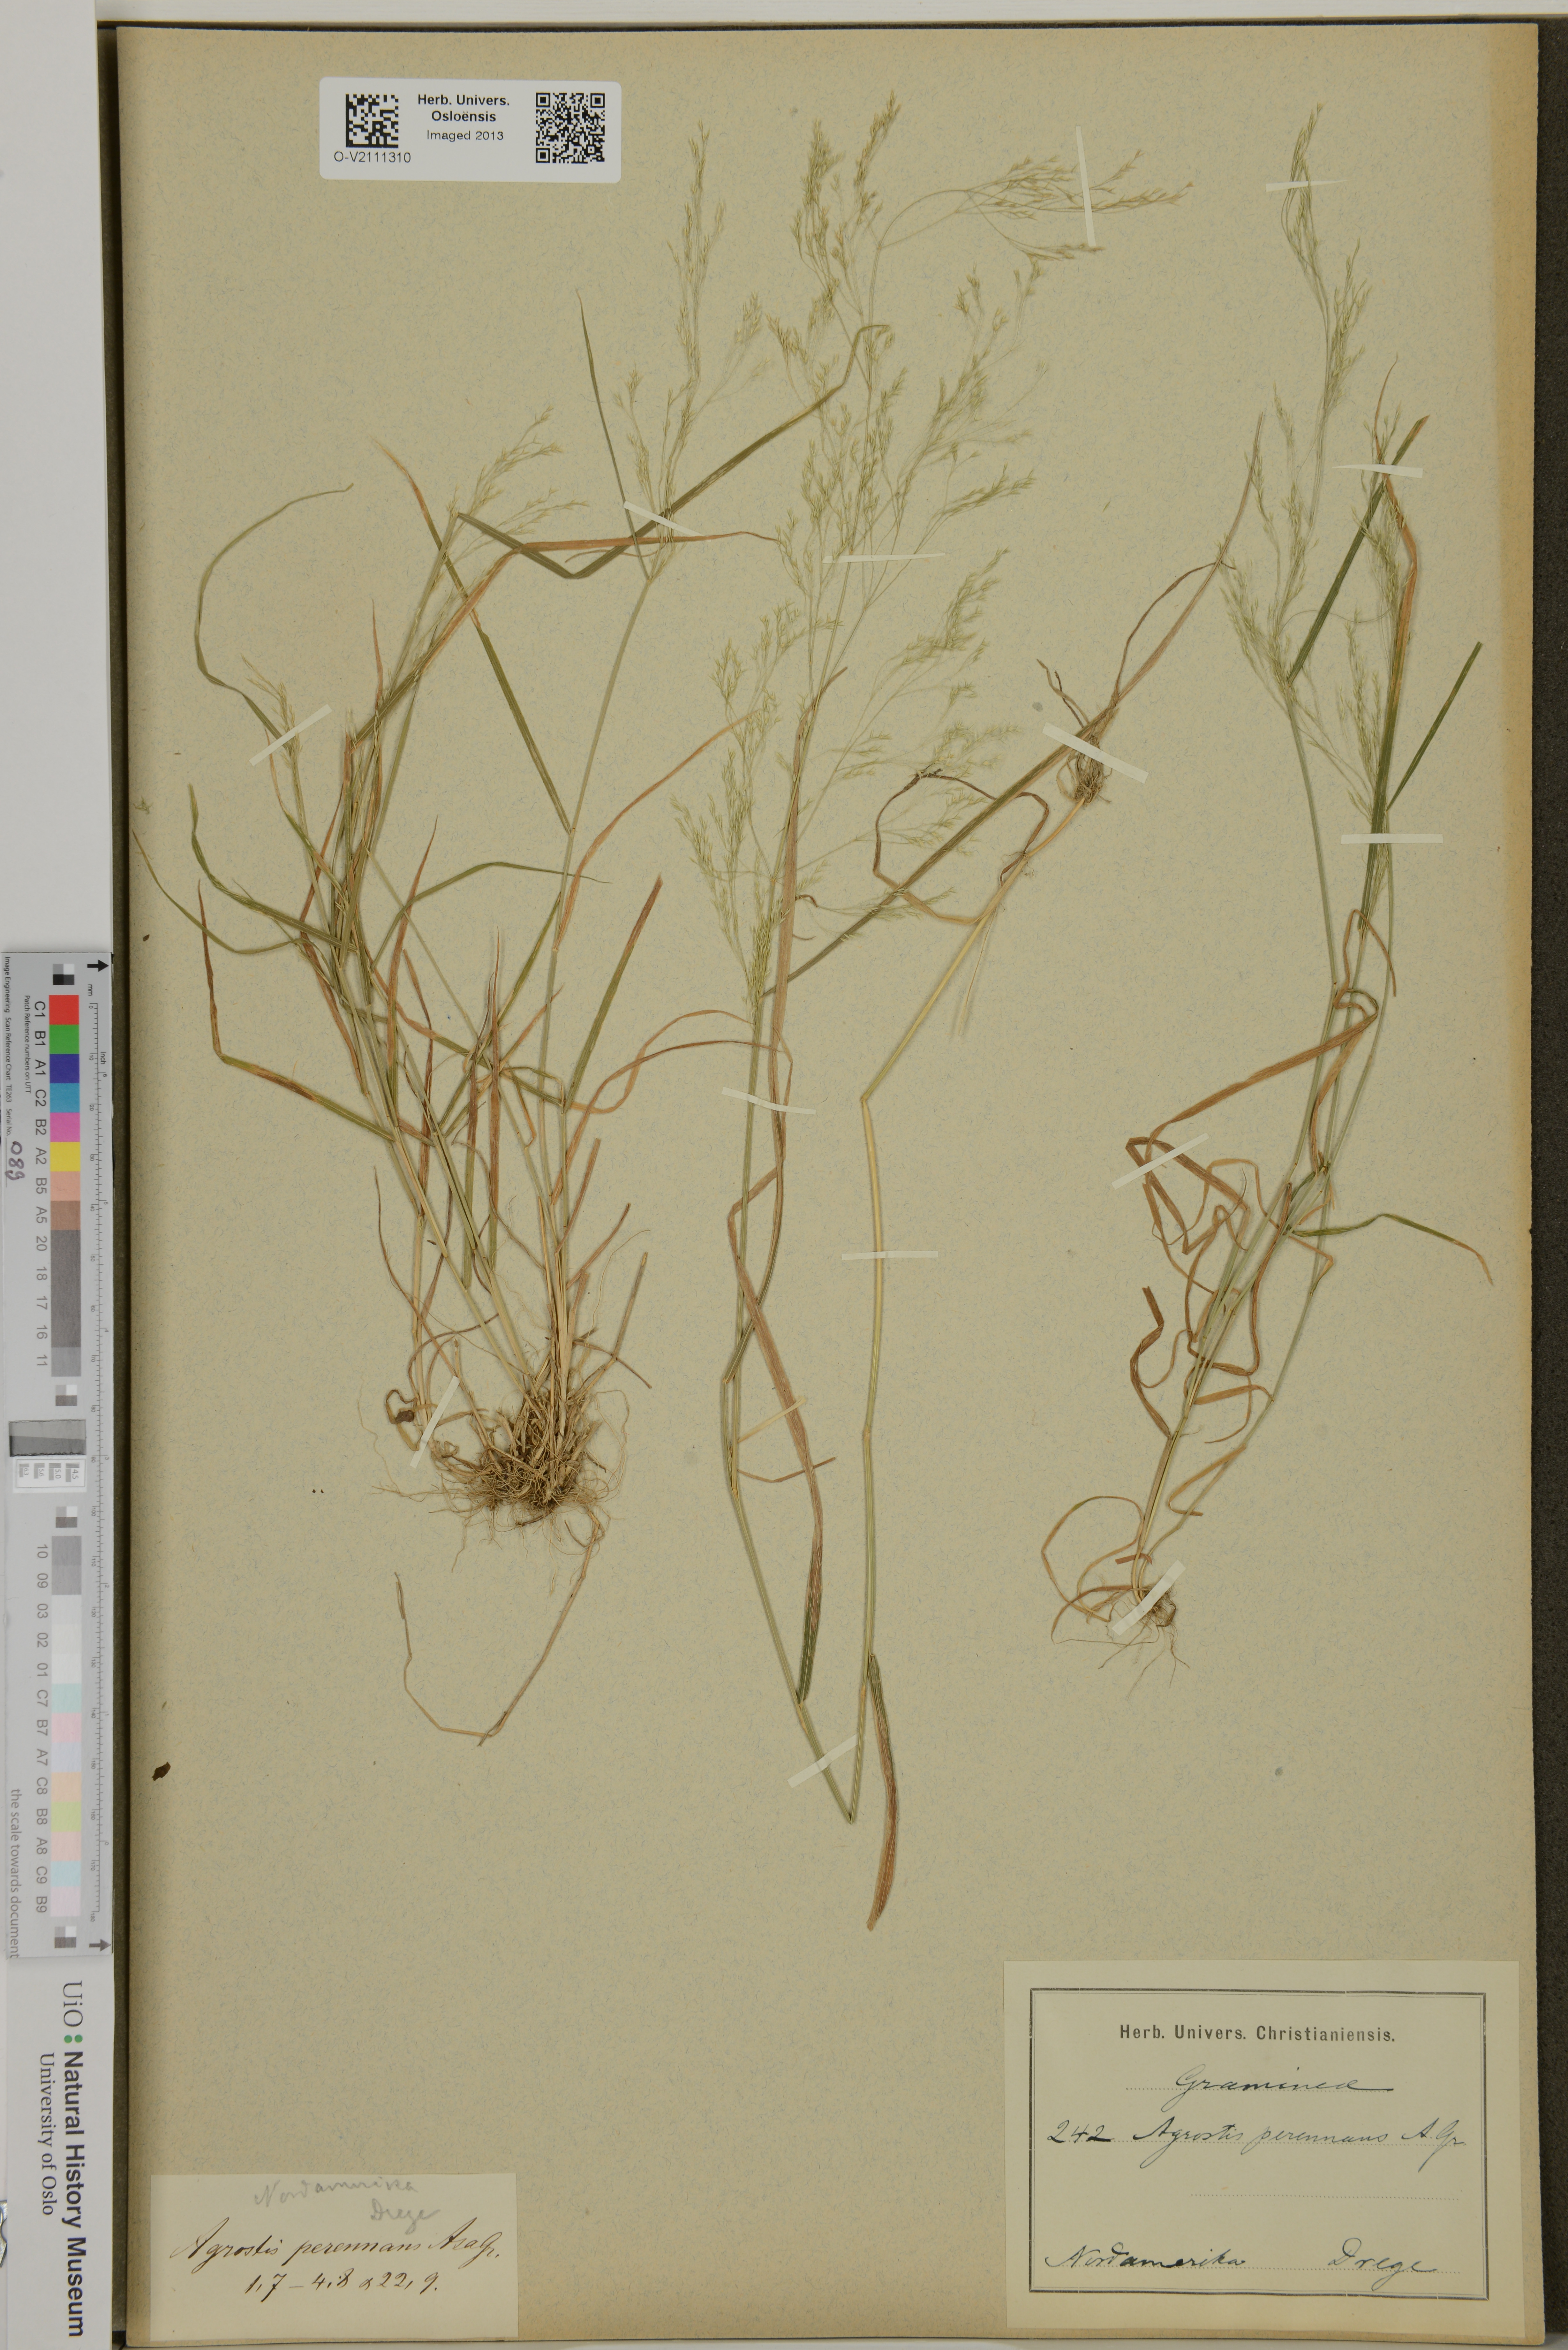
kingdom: Plantae
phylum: Tracheophyta
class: Liliopsida
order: Poales
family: Poaceae
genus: Agrostis
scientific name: Agrostis perennans
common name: Autumn bent
